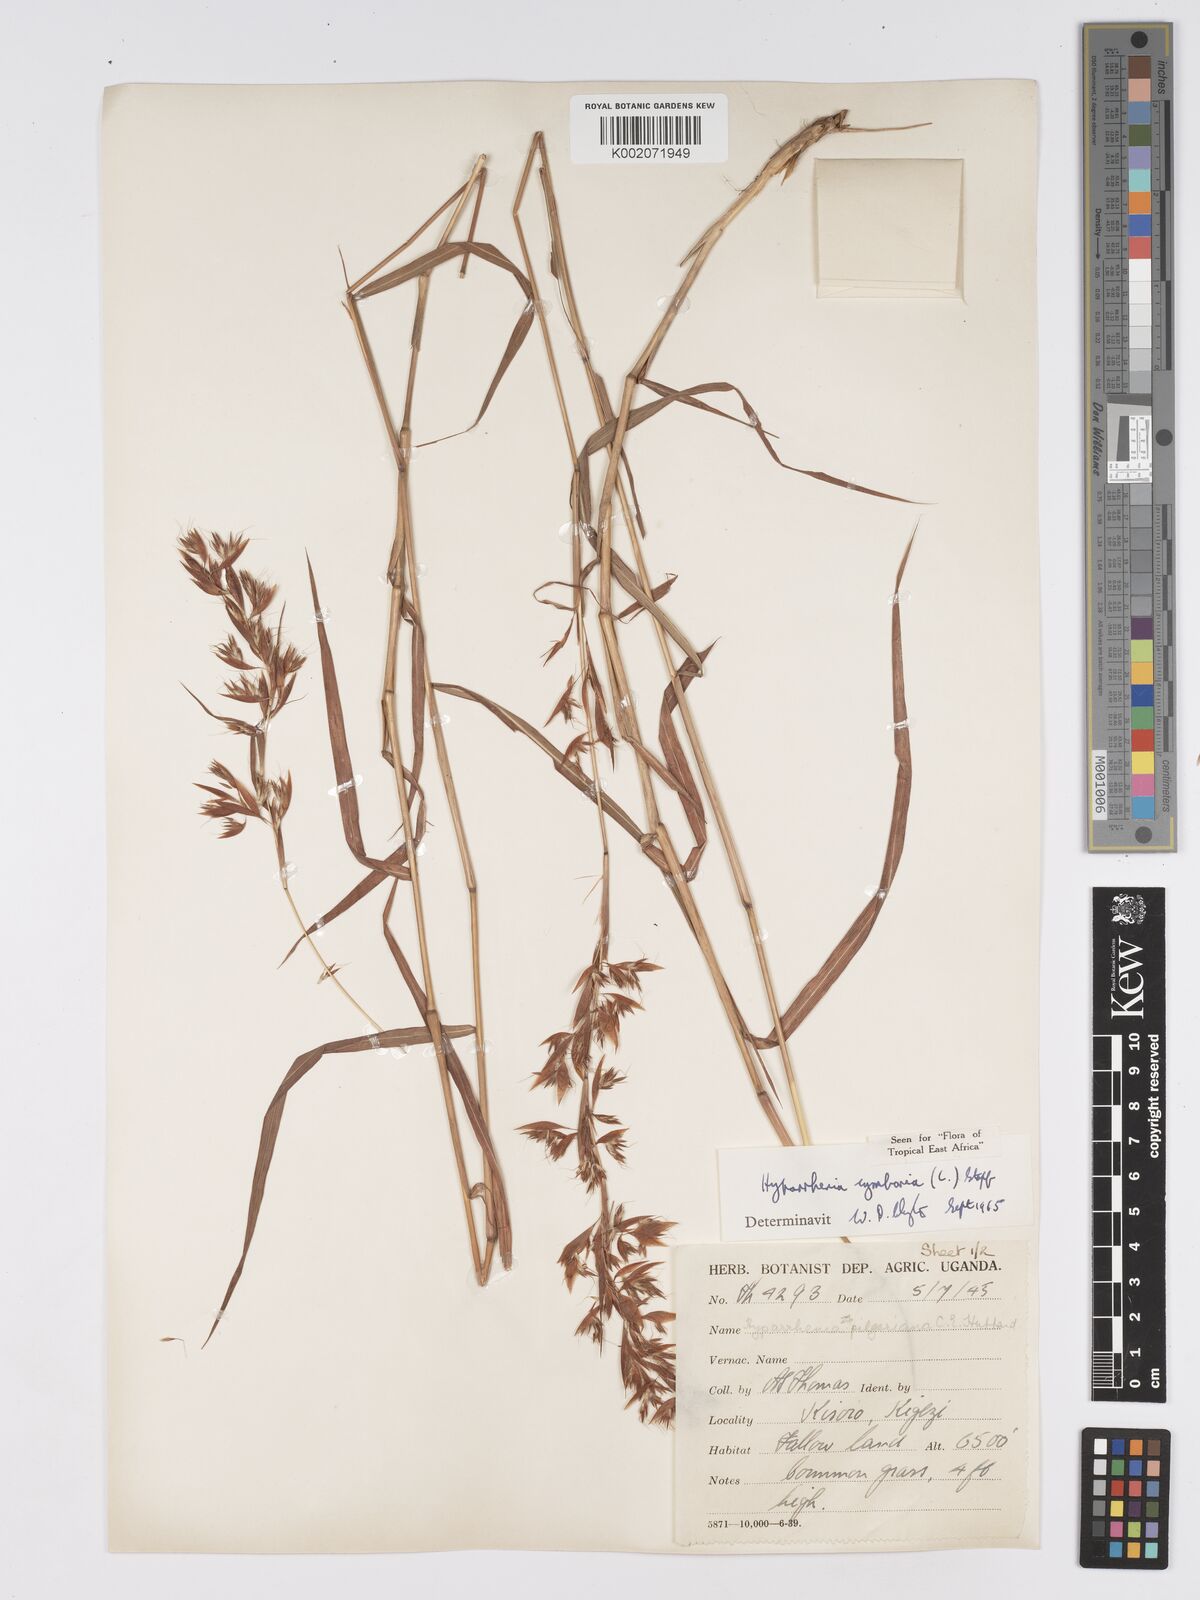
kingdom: Plantae
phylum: Tracheophyta
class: Liliopsida
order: Poales
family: Poaceae
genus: Hyparrhenia
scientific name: Hyparrhenia cymbaria
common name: Boat thatching grass
